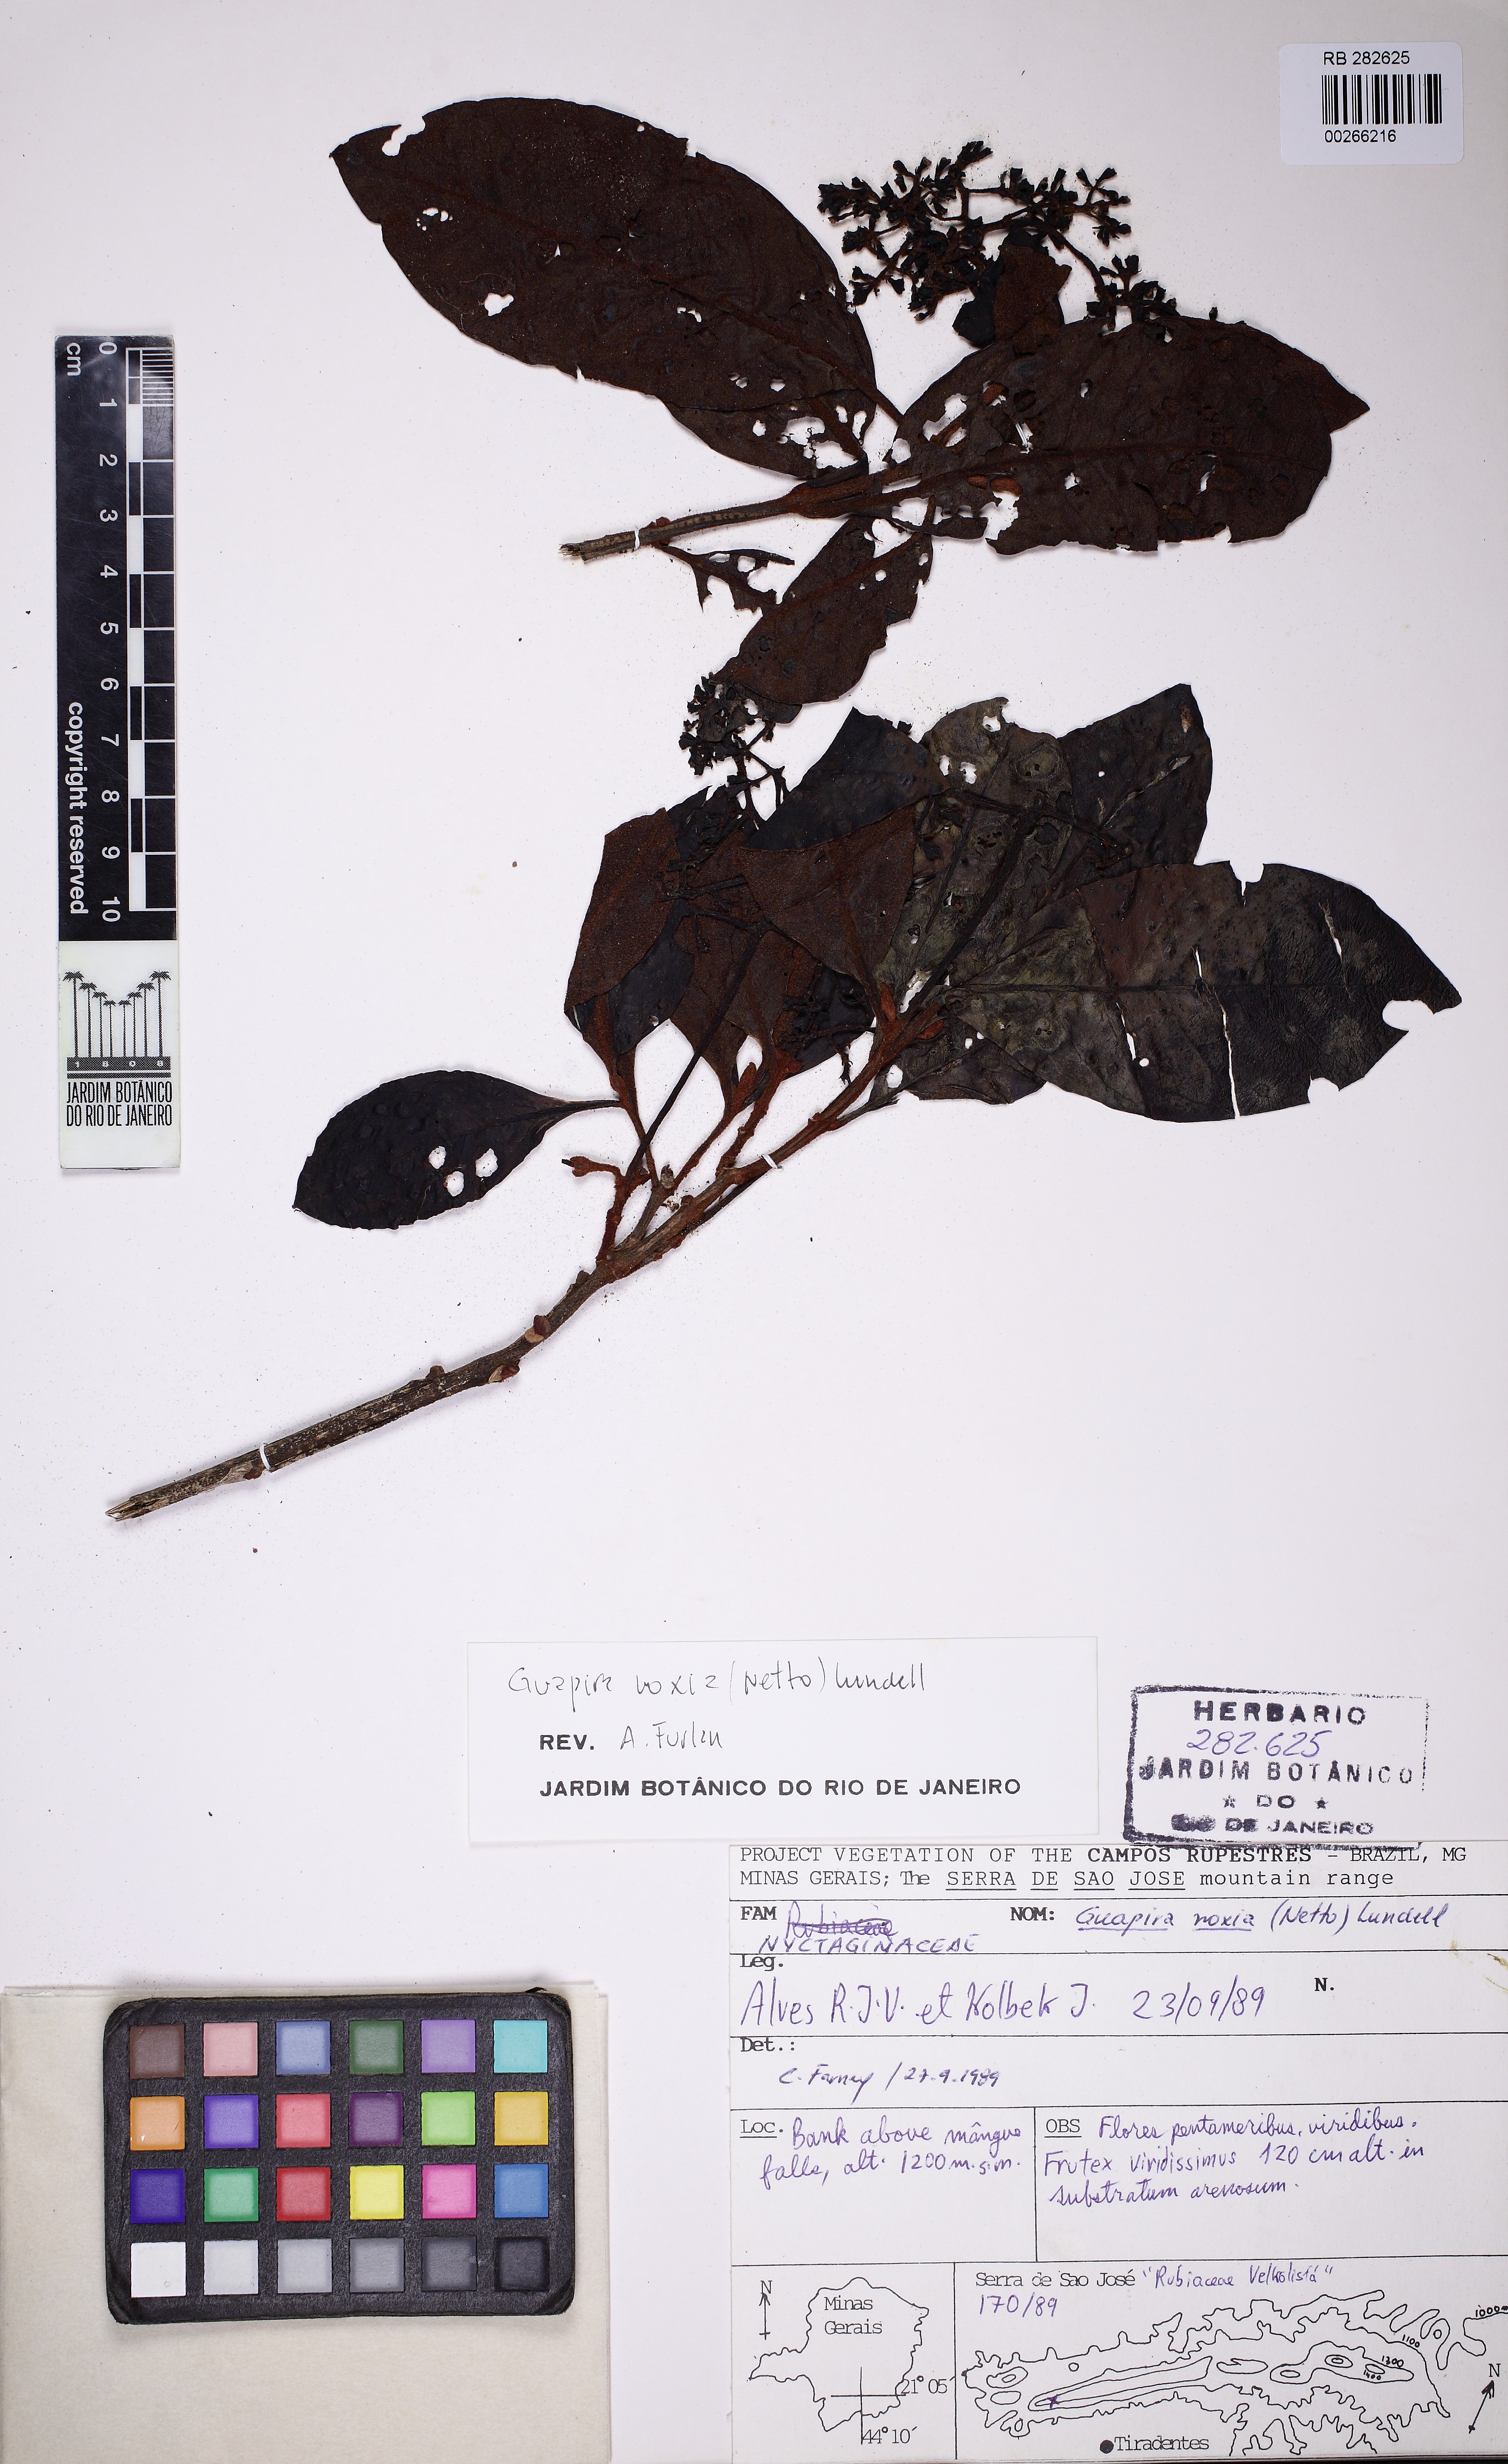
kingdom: Plantae
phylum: Tracheophyta
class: Magnoliopsida
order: Caryophyllales
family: Nyctaginaceae
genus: Guapira
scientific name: Guapira noxia
